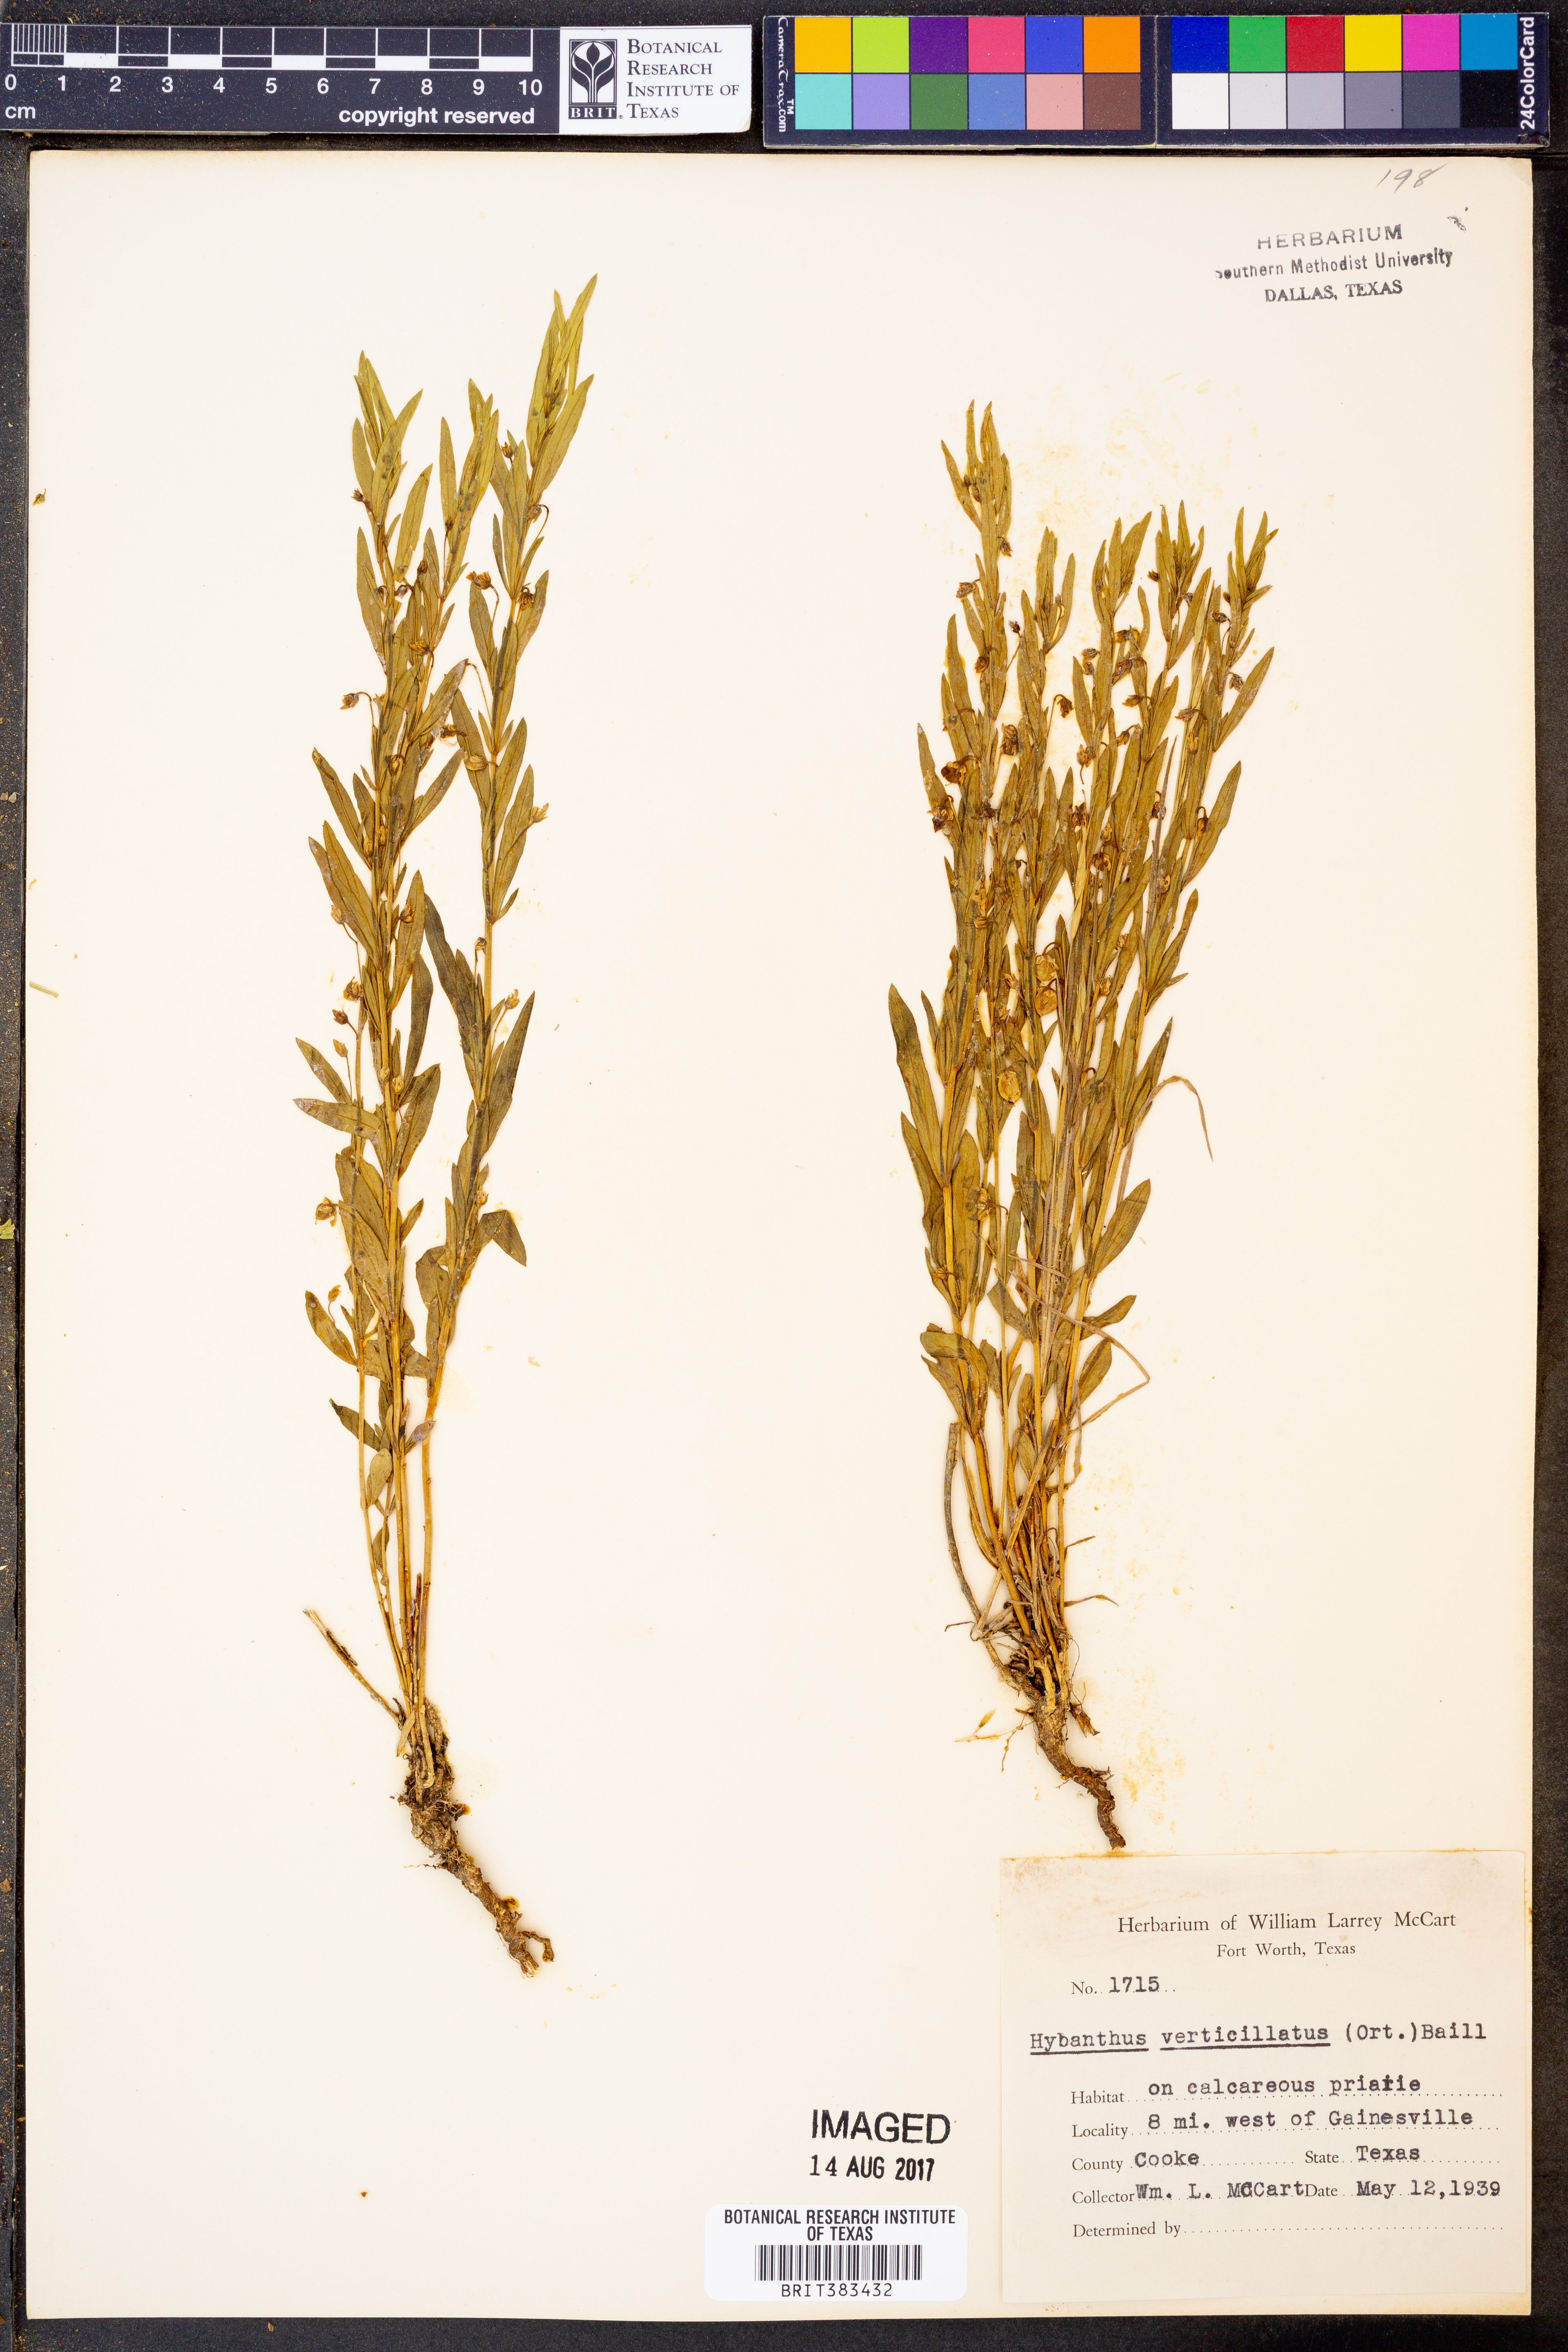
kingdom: Plantae
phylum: Tracheophyta
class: Magnoliopsida
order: Malpighiales
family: Violaceae
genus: Pombalia
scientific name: Pombalia verticillata
